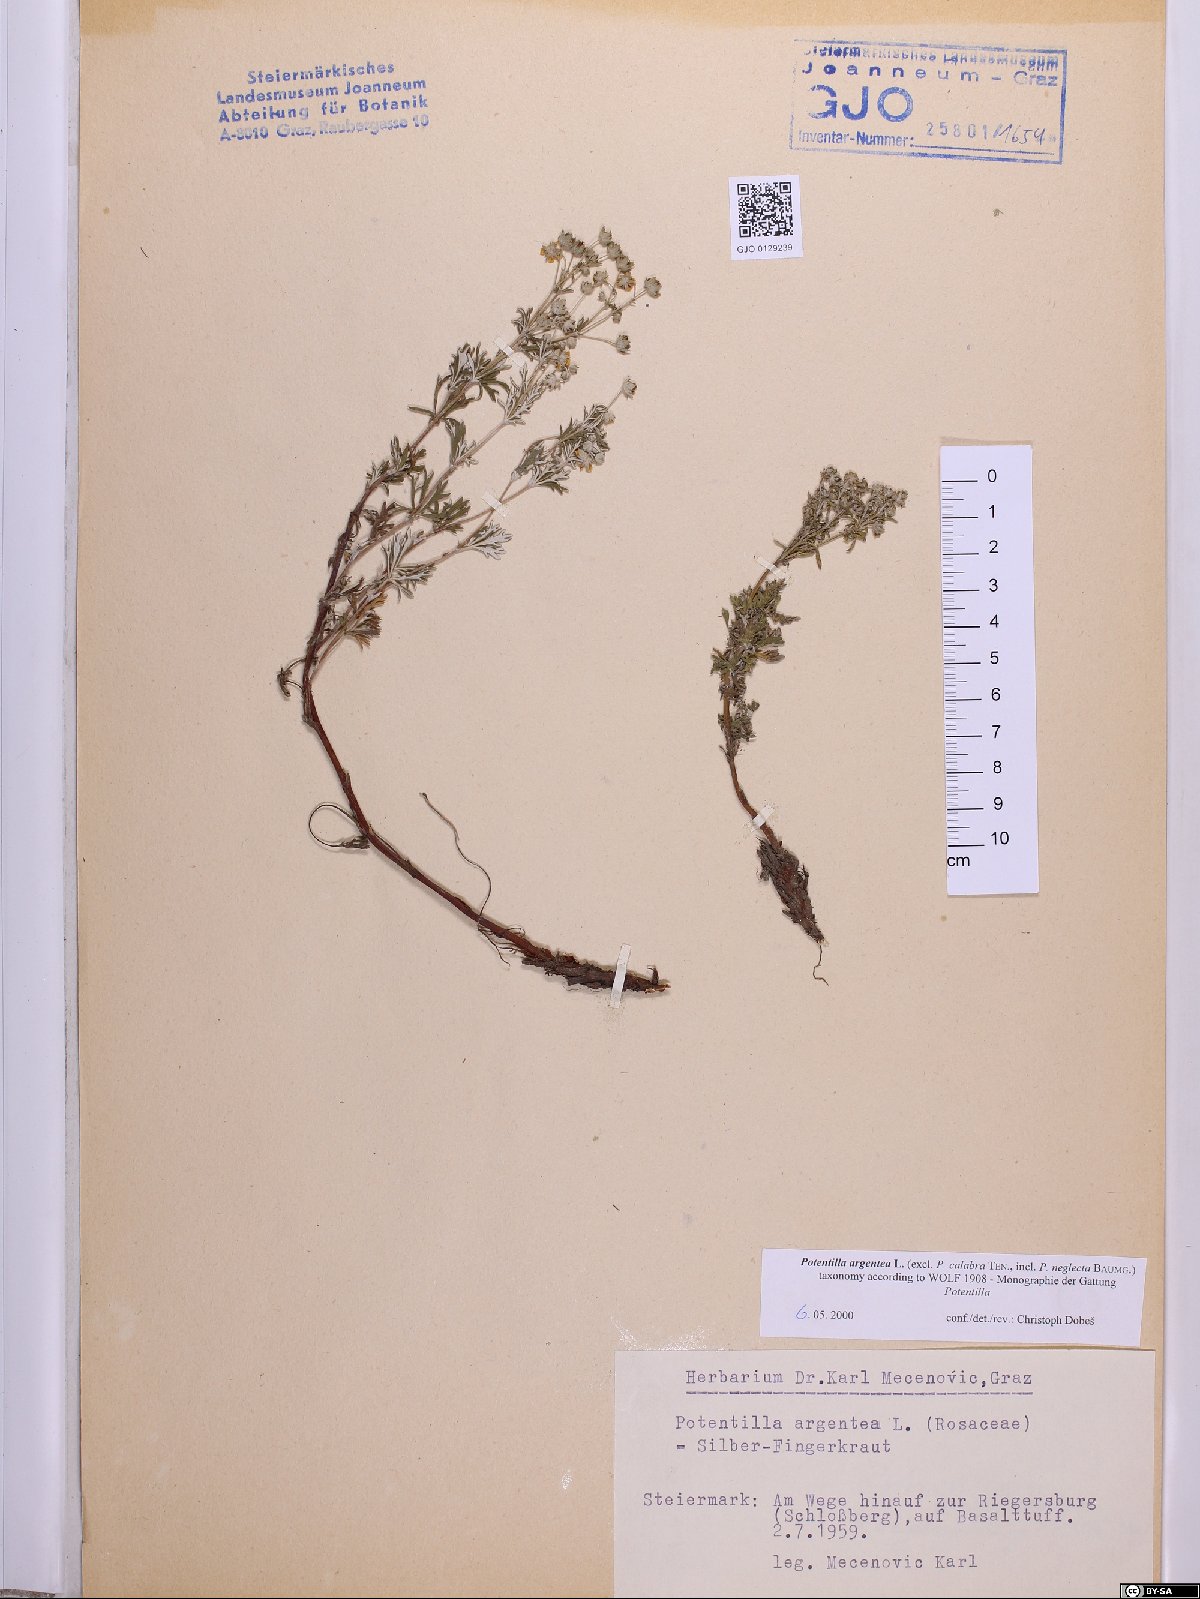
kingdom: Plantae
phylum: Tracheophyta
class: Magnoliopsida
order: Rosales
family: Rosaceae
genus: Potentilla
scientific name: Potentilla argentea
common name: Hoary cinquefoil
